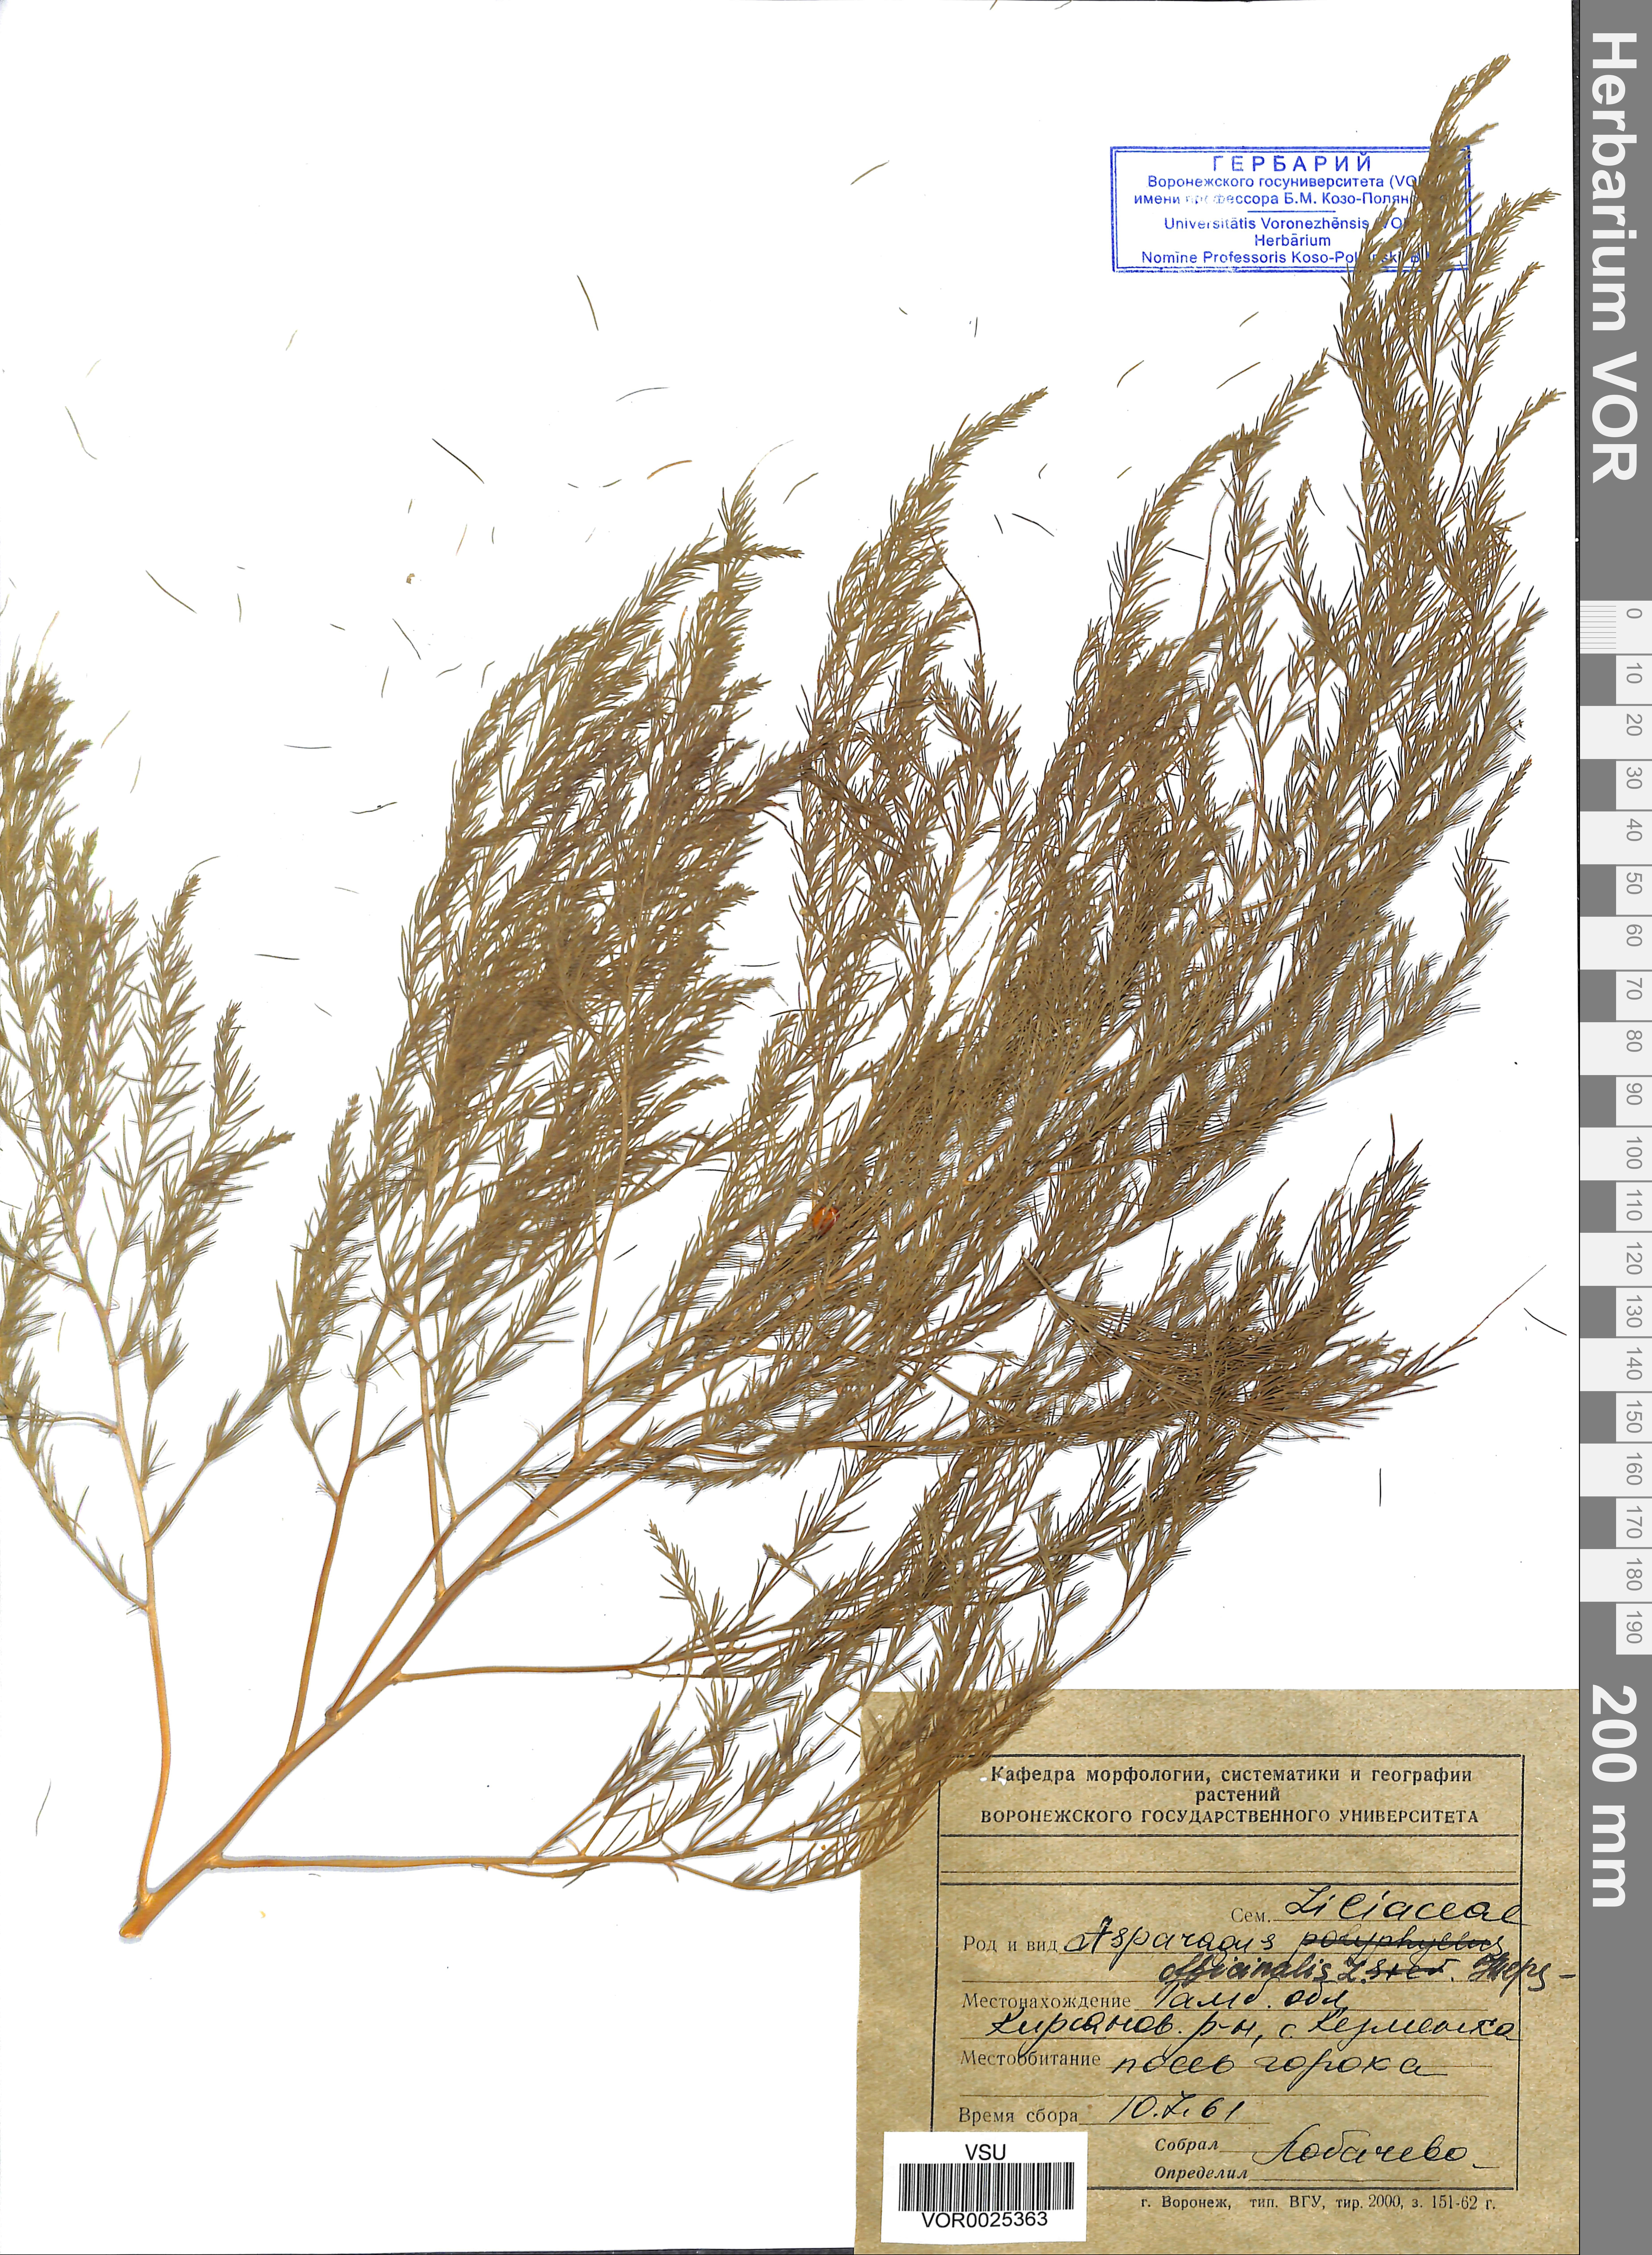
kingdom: Plantae
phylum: Tracheophyta
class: Liliopsida
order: Asparagales
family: Asparagaceae
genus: Asparagus
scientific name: Asparagus officinalis
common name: Garden asparagus
